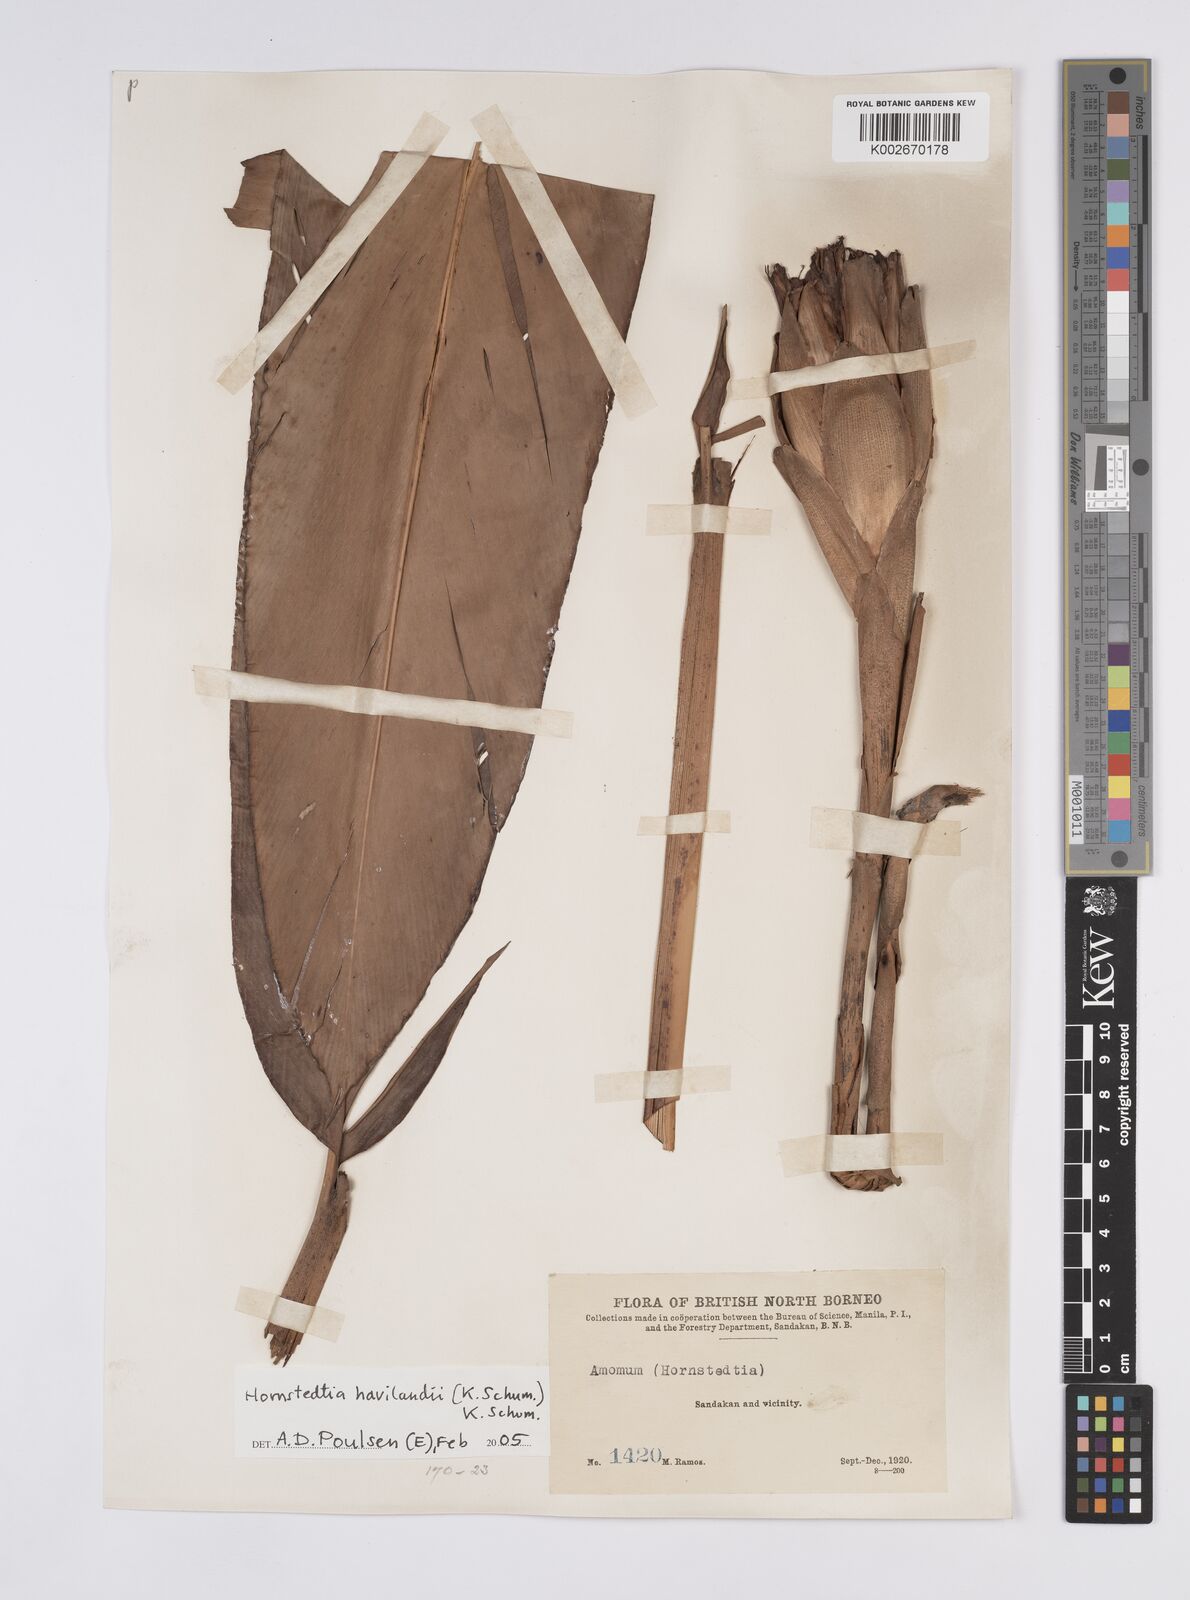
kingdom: Plantae
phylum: Tracheophyta
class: Liliopsida
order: Zingiberales
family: Zingiberaceae
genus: Hornstedtia
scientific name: Hornstedtia havilandii
